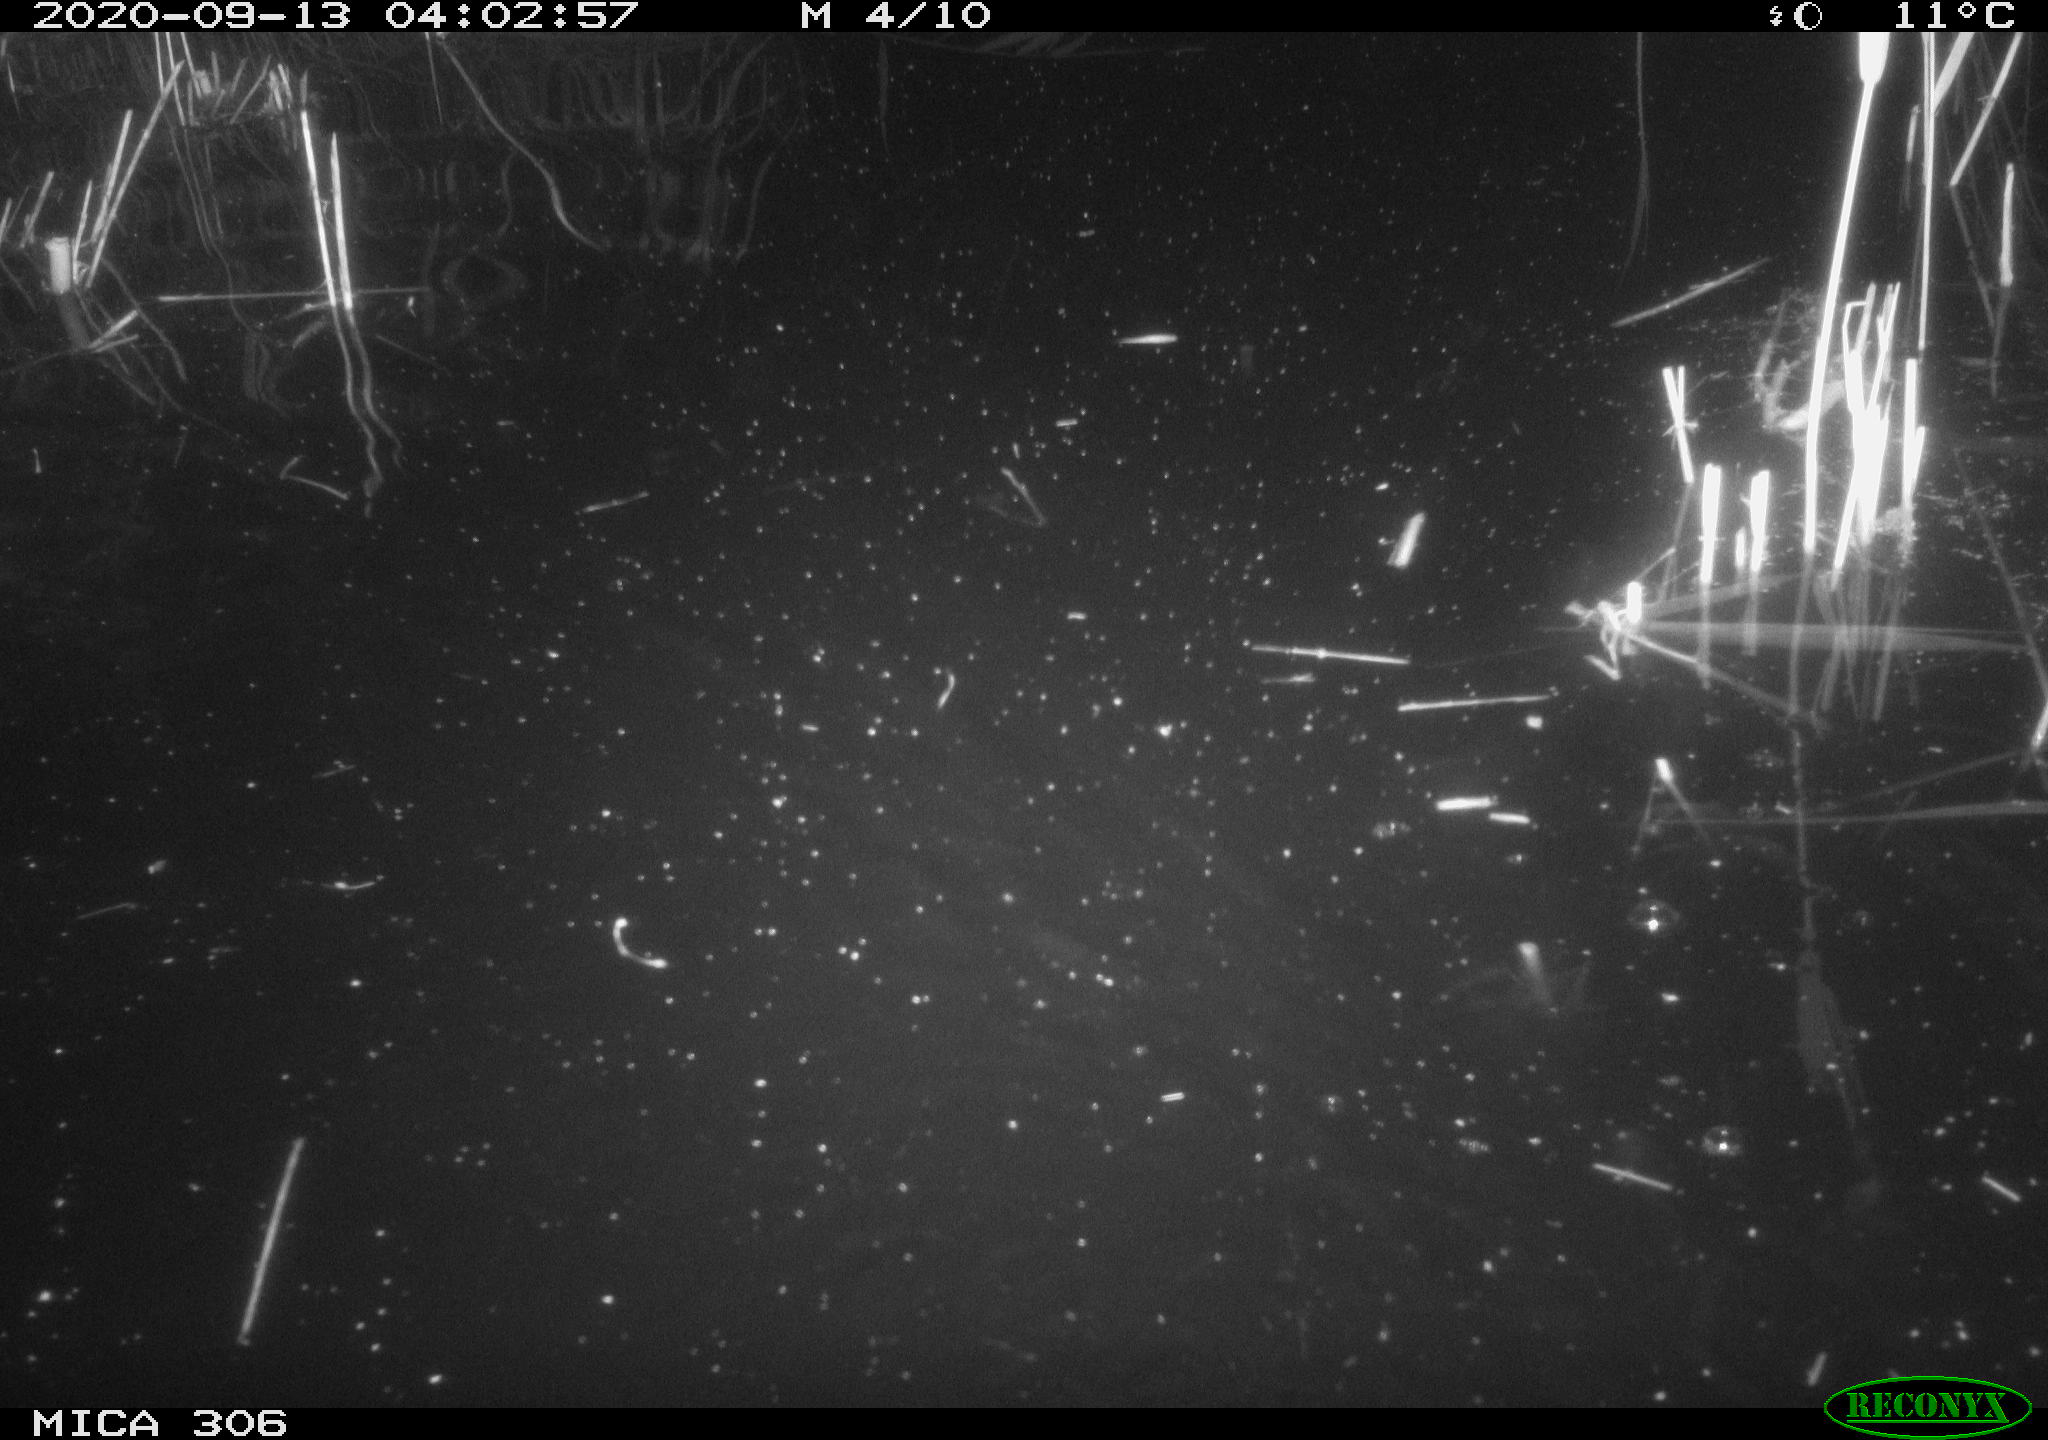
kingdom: Animalia
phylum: Chordata
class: Mammalia
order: Rodentia
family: Cricetidae
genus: Ondatra
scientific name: Ondatra zibethicus
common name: Muskrat
